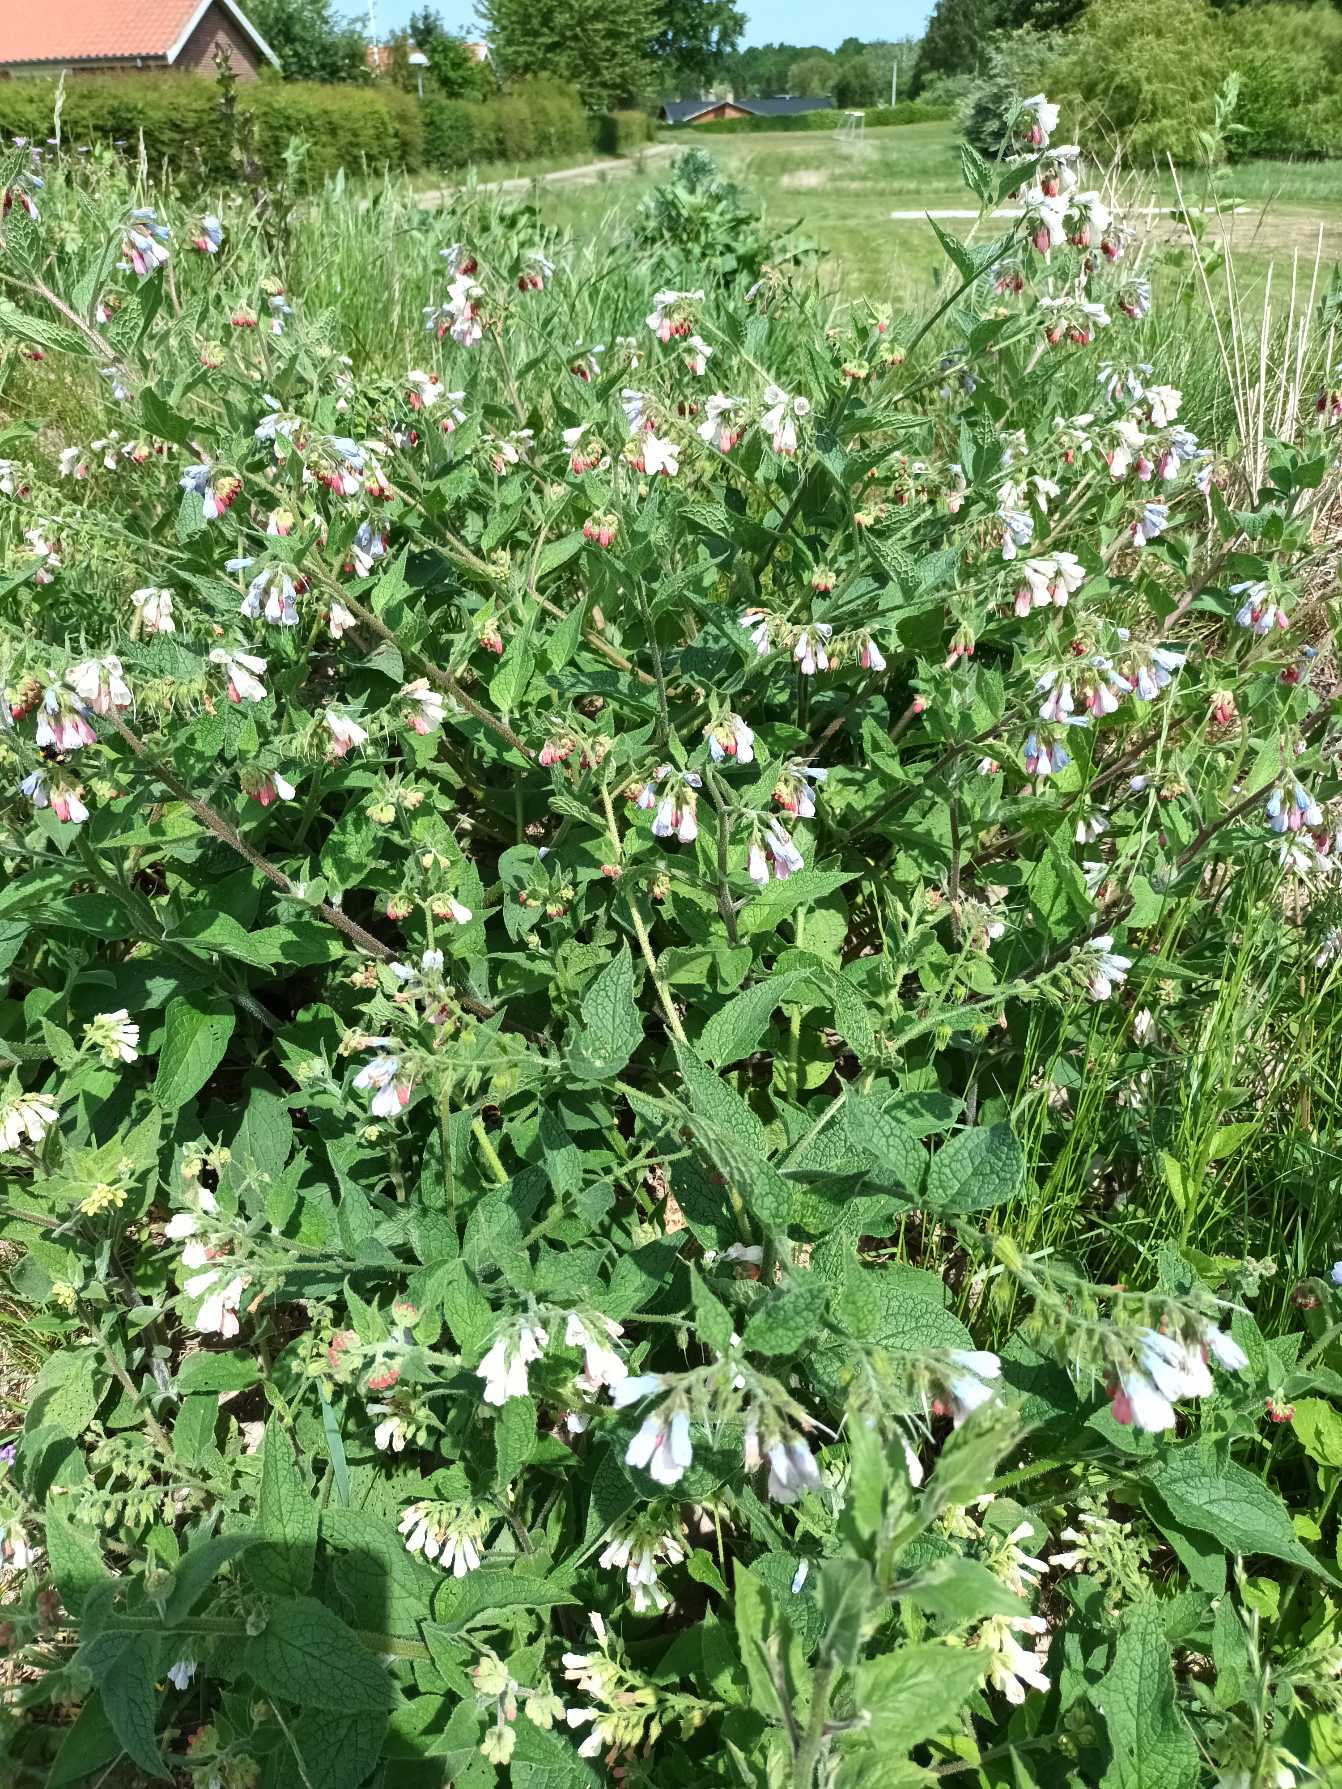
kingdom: Plantae
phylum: Tracheophyta
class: Magnoliopsida
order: Boraginales
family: Boraginaceae
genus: Symphytum
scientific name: Symphytum hidcotense
